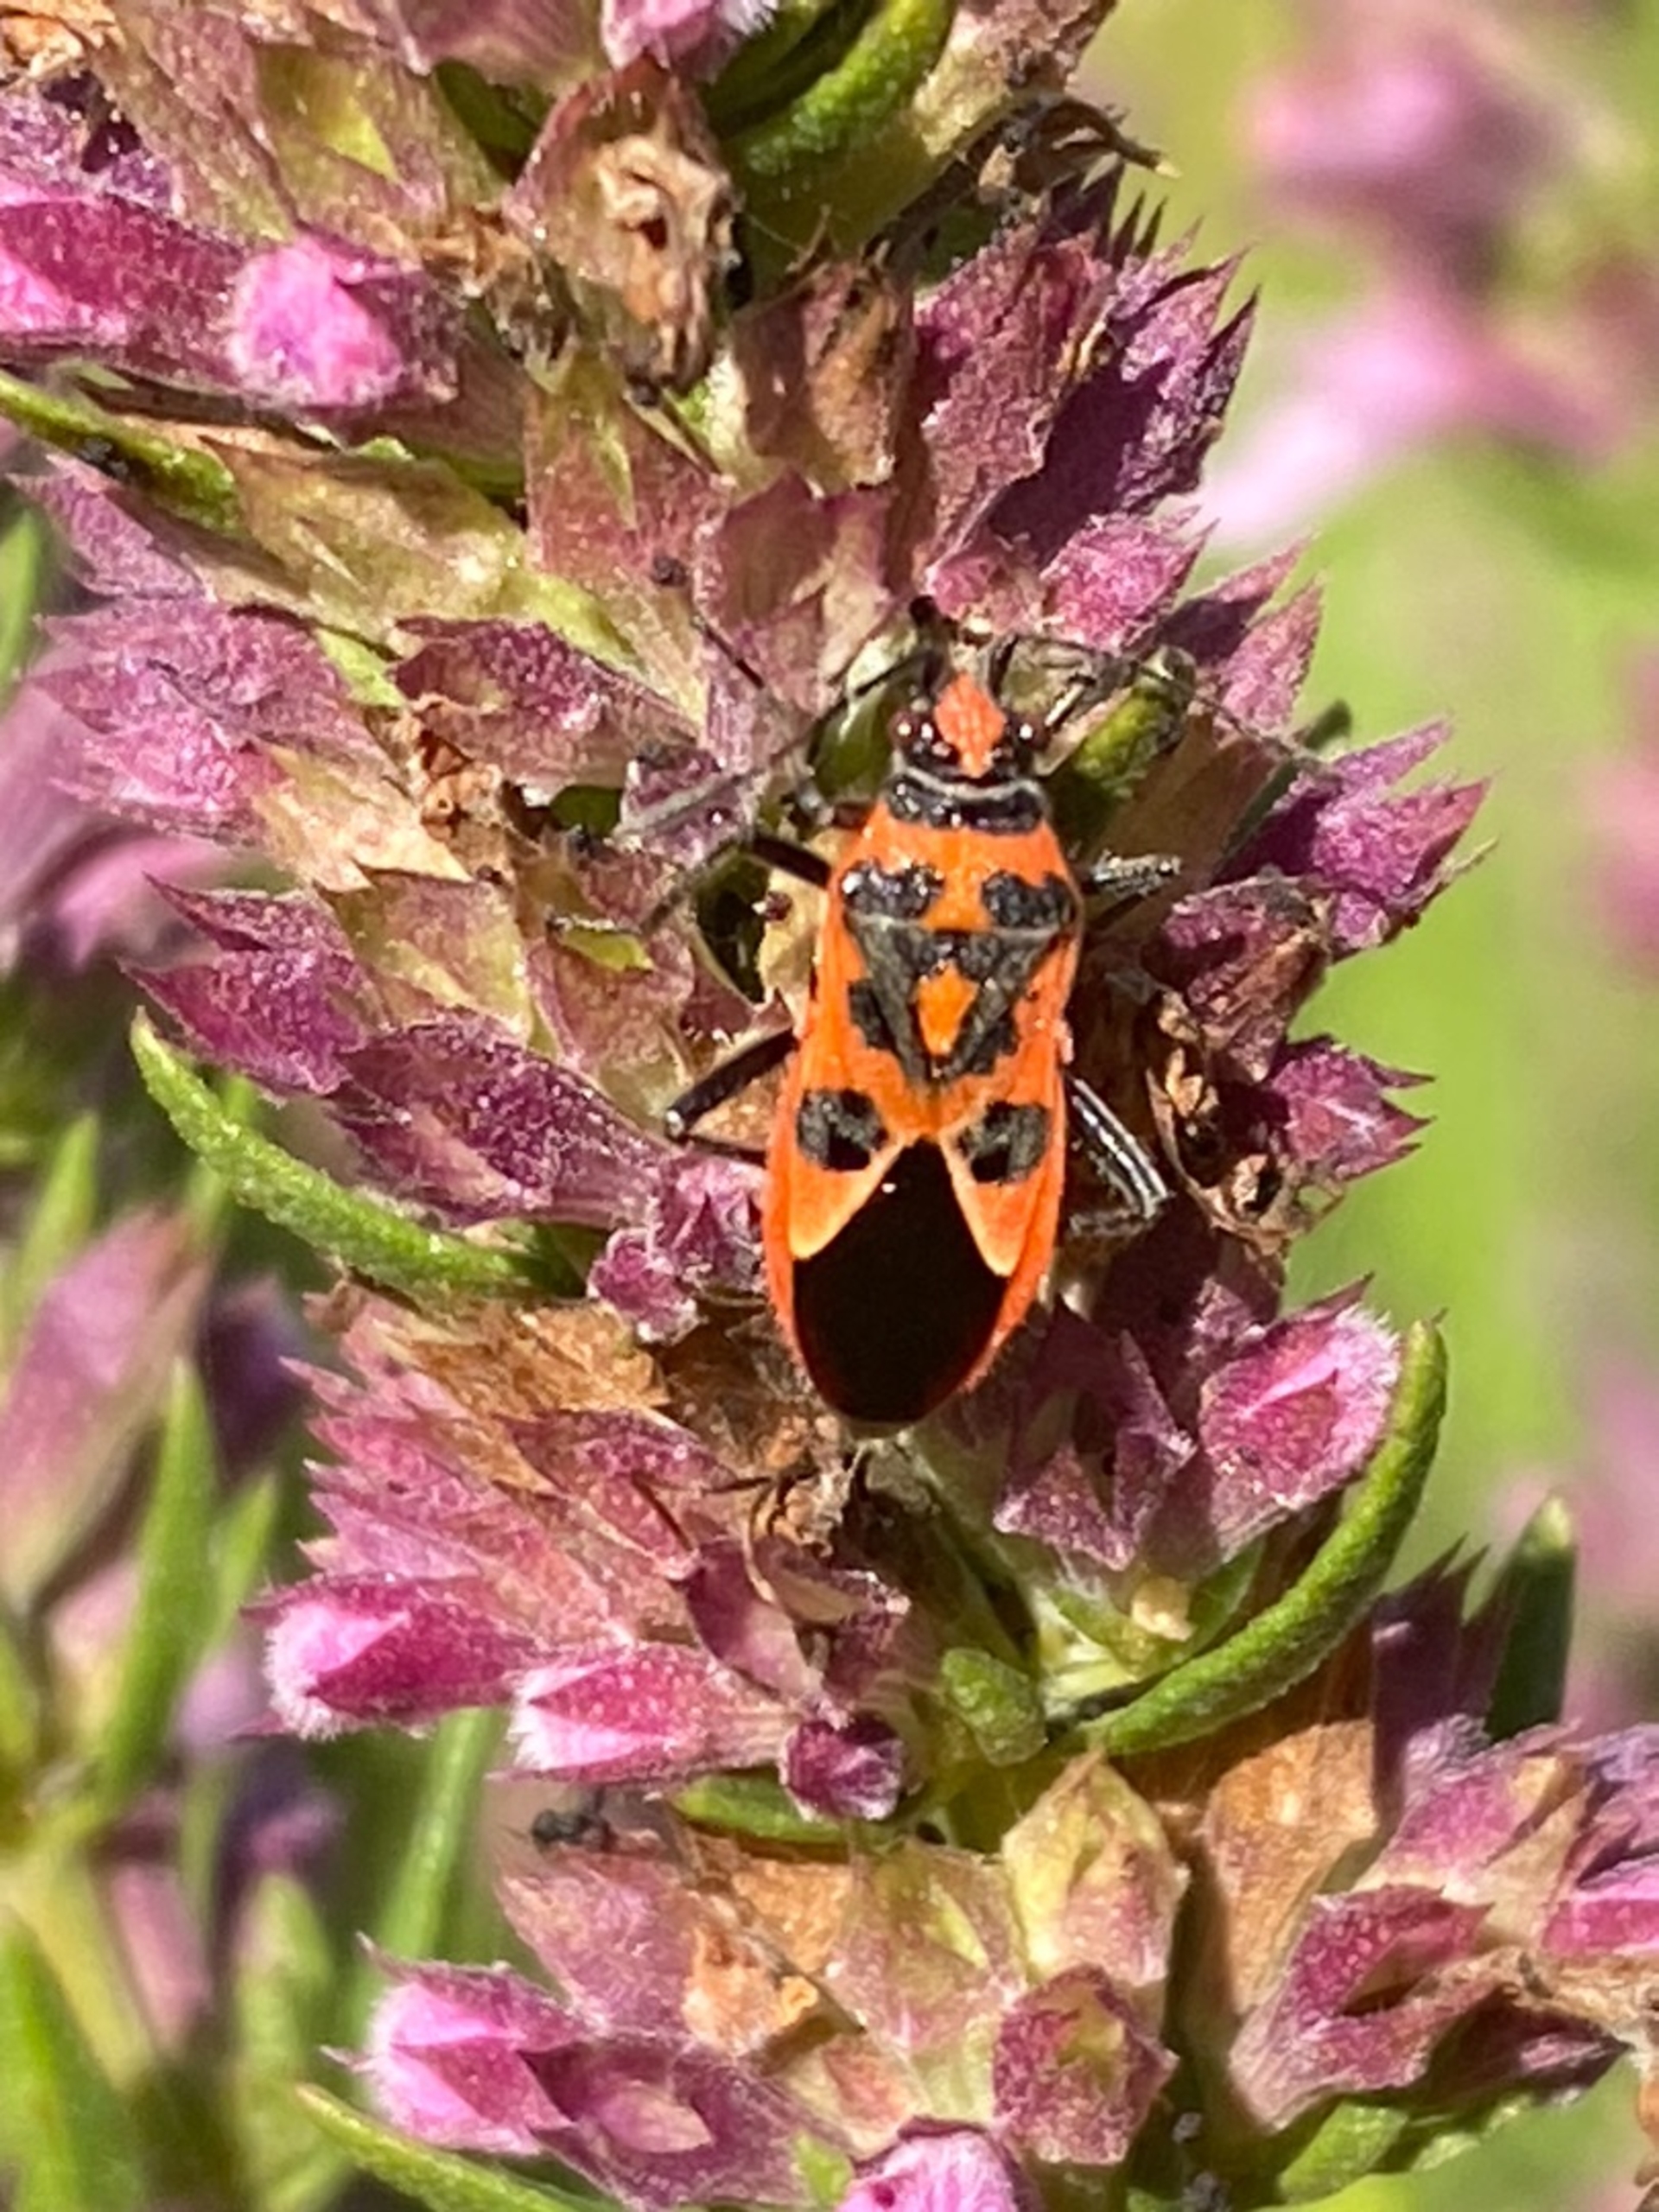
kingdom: Animalia
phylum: Arthropoda
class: Insecta
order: Hemiptera
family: Rhopalidae
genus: Corizus
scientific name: Corizus hyoscyami
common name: Rød kanttæge
